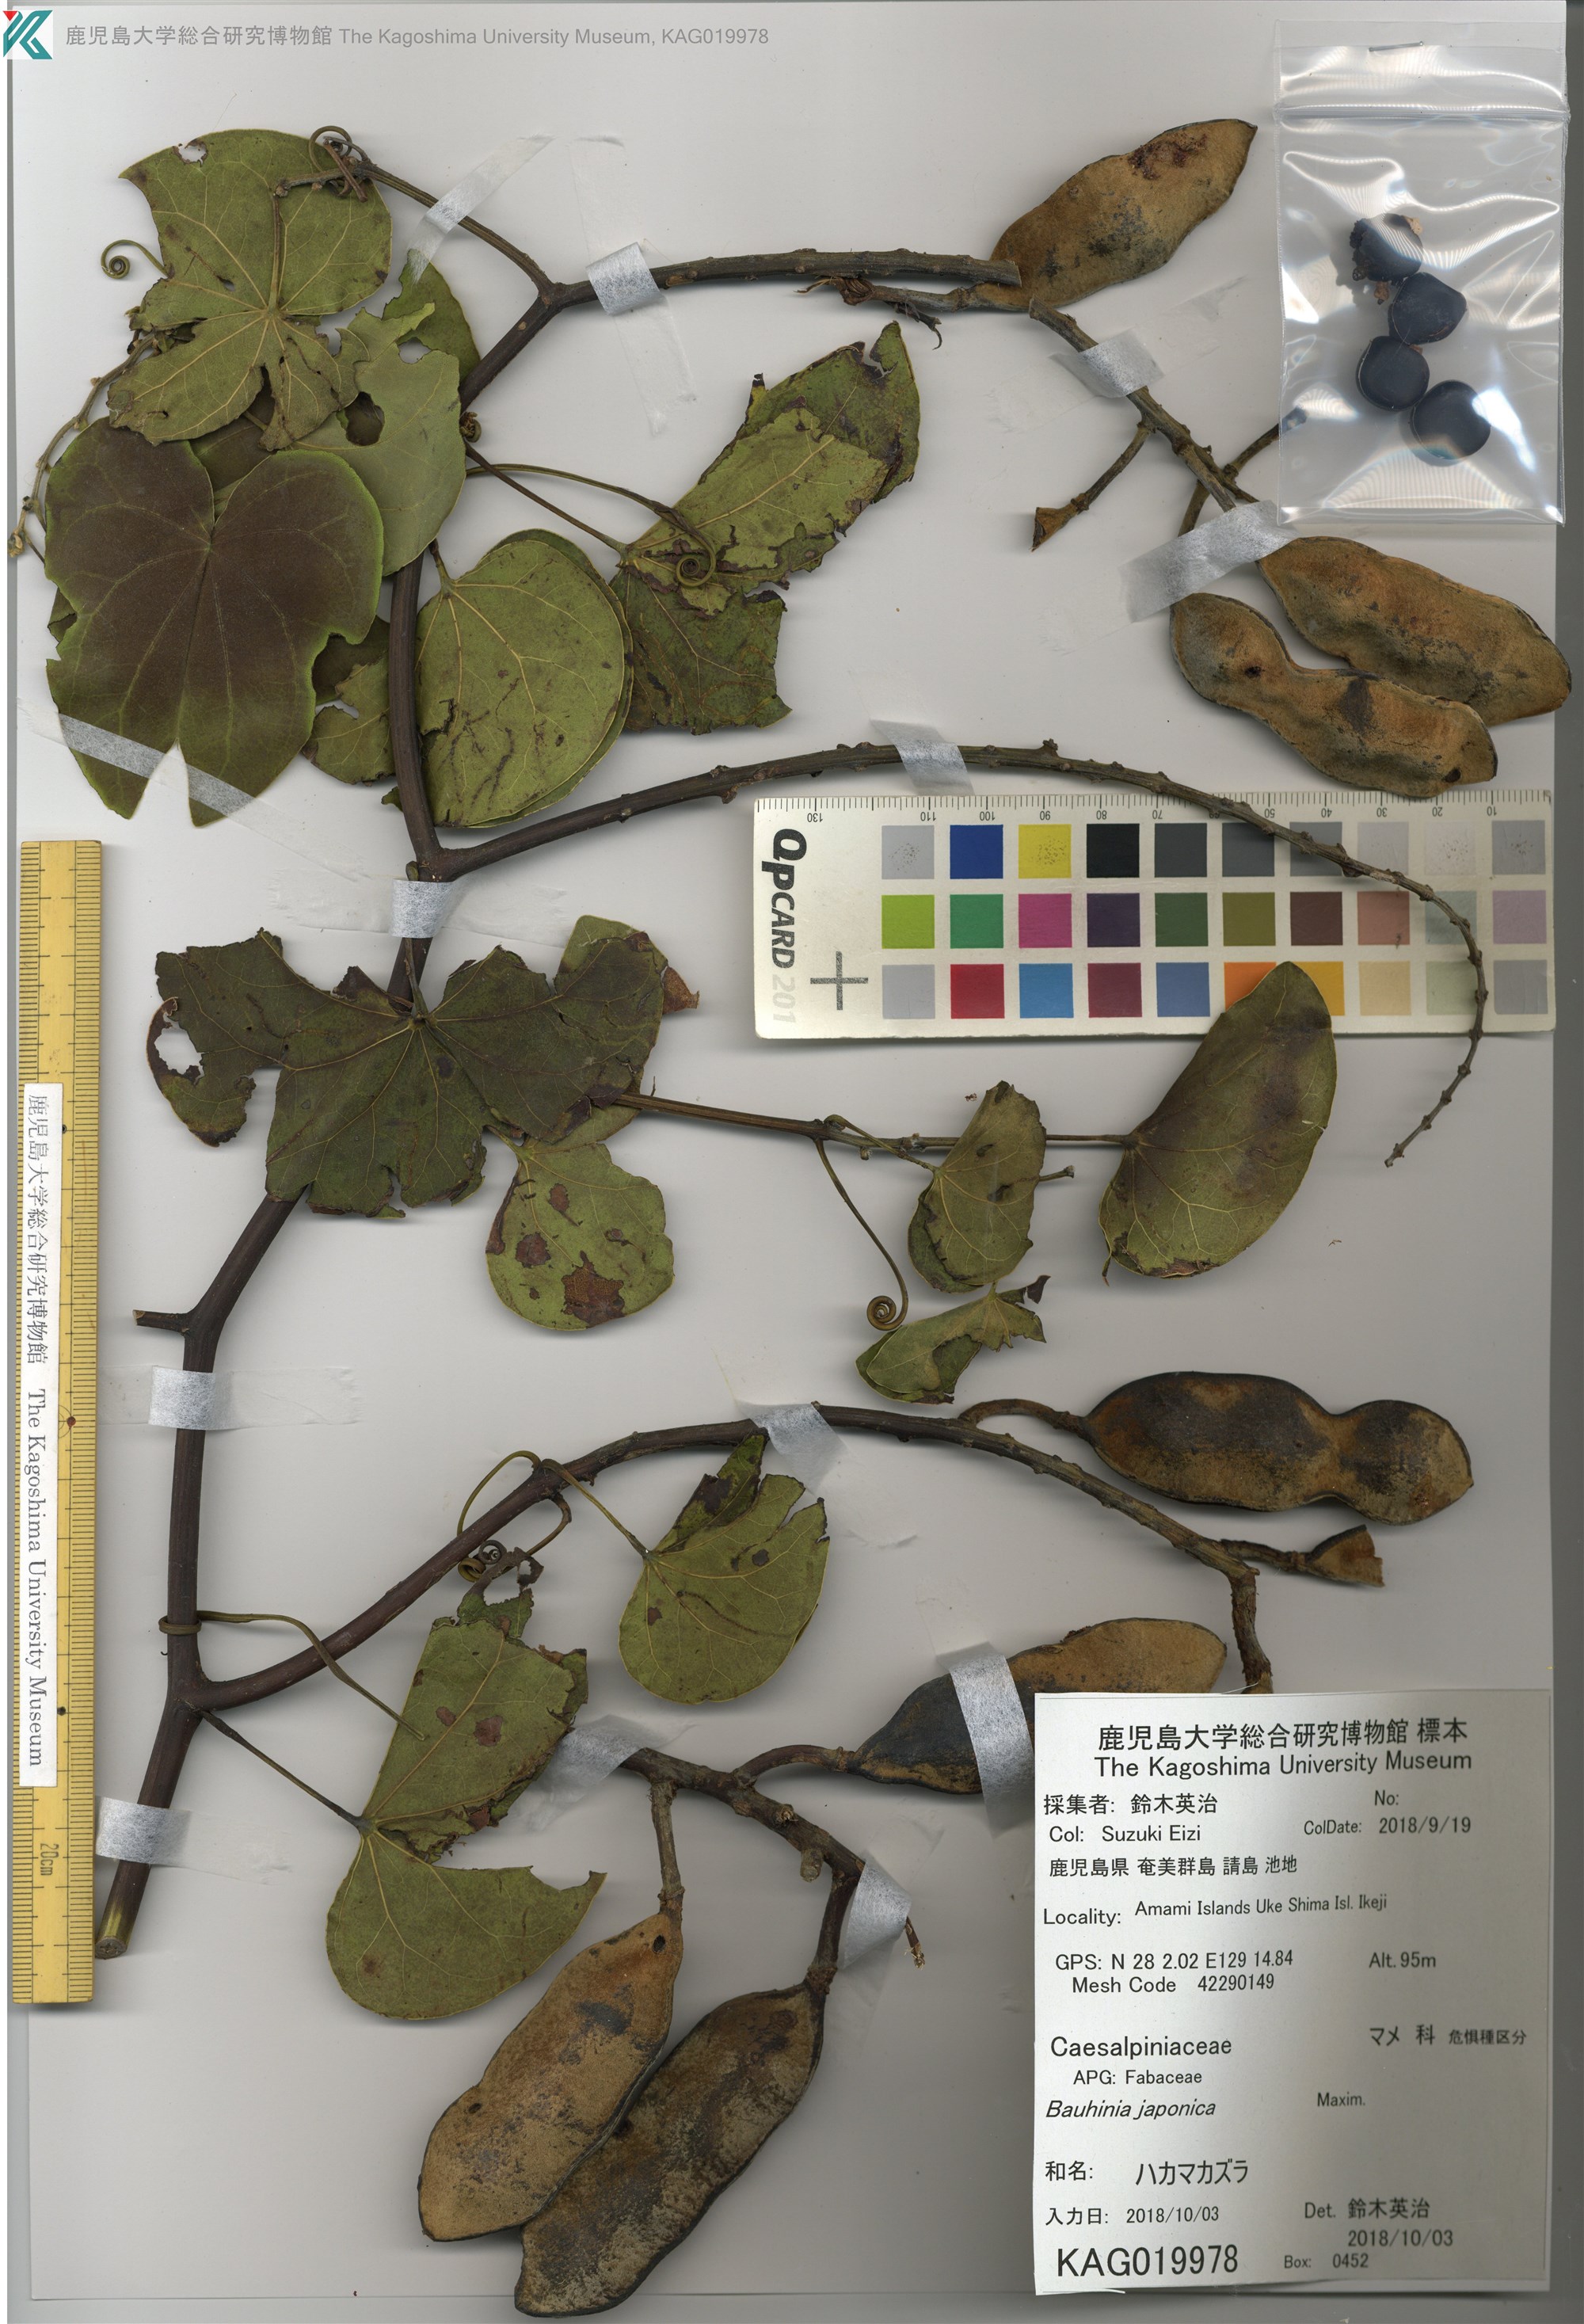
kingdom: Plantae
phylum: Tracheophyta
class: Magnoliopsida
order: Fabales
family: Fabaceae
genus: Phanera
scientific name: Phanera japonica
